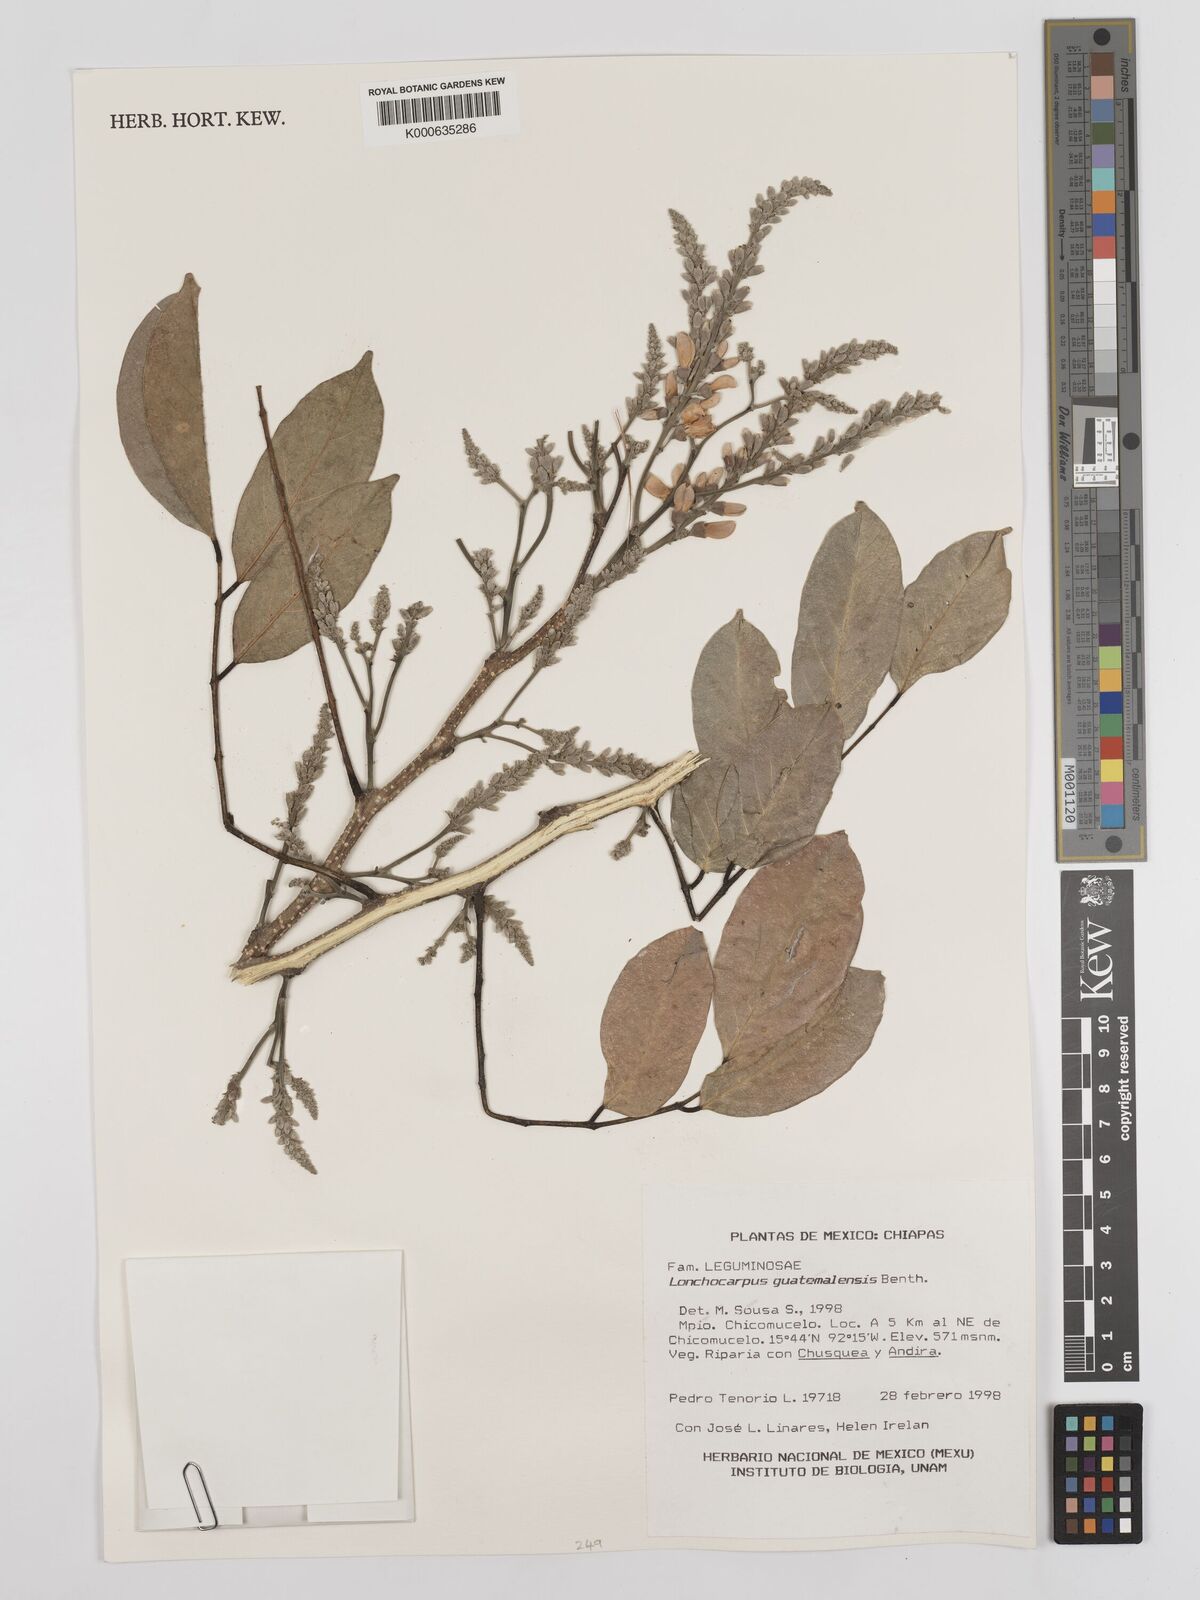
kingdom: Plantae
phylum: Tracheophyta
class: Magnoliopsida
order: Fabales
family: Fabaceae
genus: Lonchocarpus
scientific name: Lonchocarpus guatemalensis
